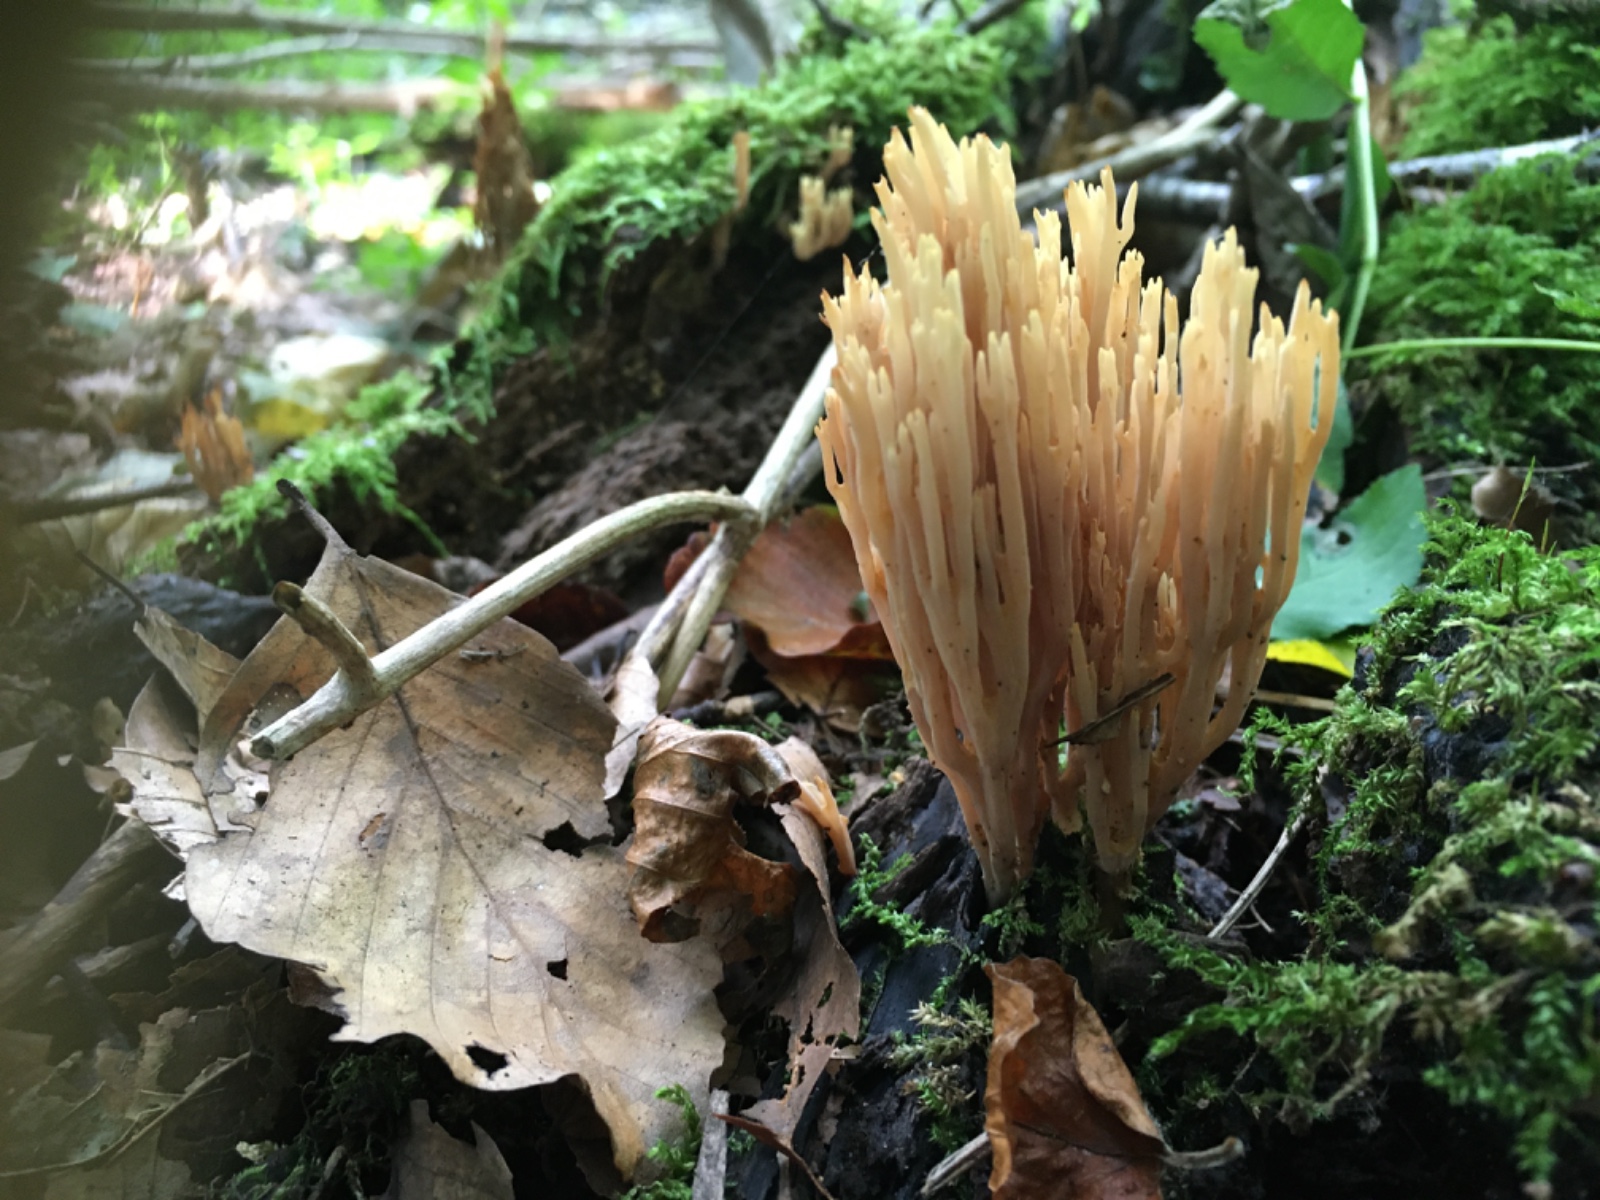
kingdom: Fungi
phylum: Basidiomycota
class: Agaricomycetes
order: Gomphales
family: Gomphaceae
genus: Ramaria
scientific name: Ramaria stricta
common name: rank koralsvamp
